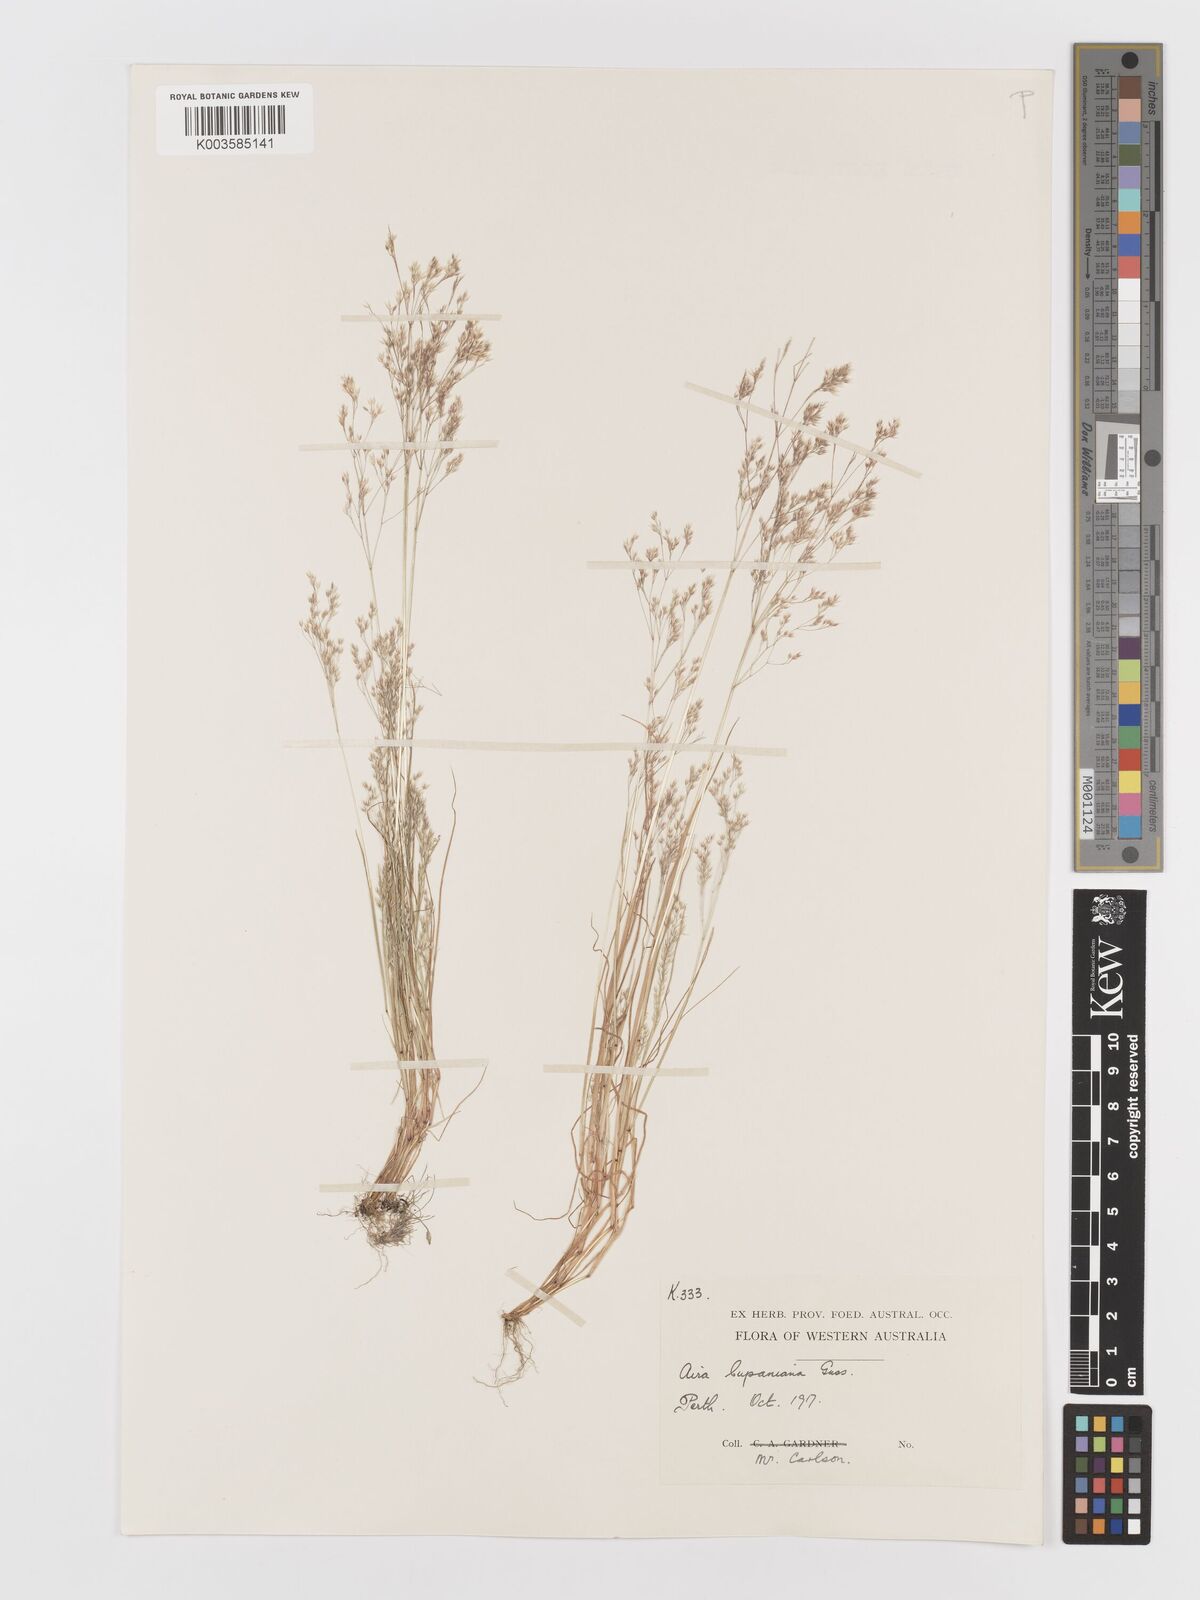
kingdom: Plantae
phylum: Tracheophyta
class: Liliopsida
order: Poales
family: Poaceae
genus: Aira
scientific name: Aira cupaniana
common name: Silver hairgrass
